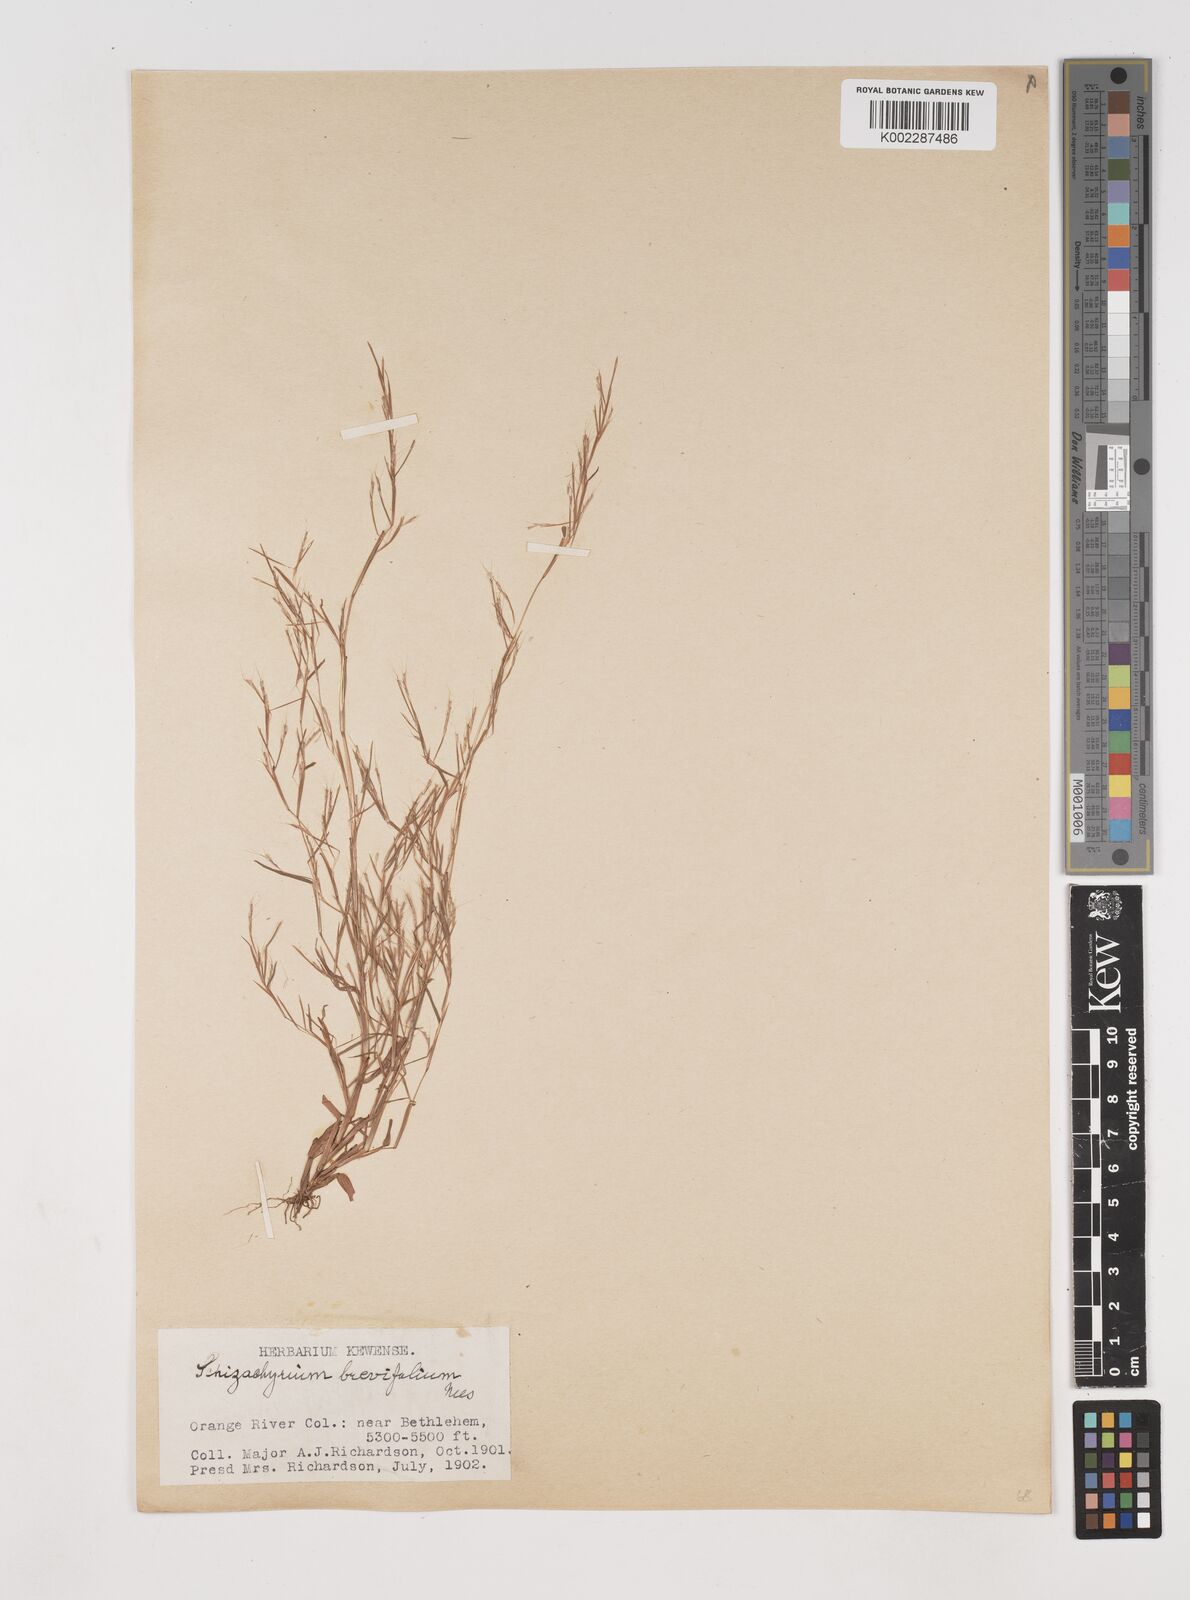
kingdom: Plantae
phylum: Tracheophyta
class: Liliopsida
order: Poales
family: Poaceae
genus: Schizachyrium
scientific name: Schizachyrium brevifolium
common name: Serillo dulce
